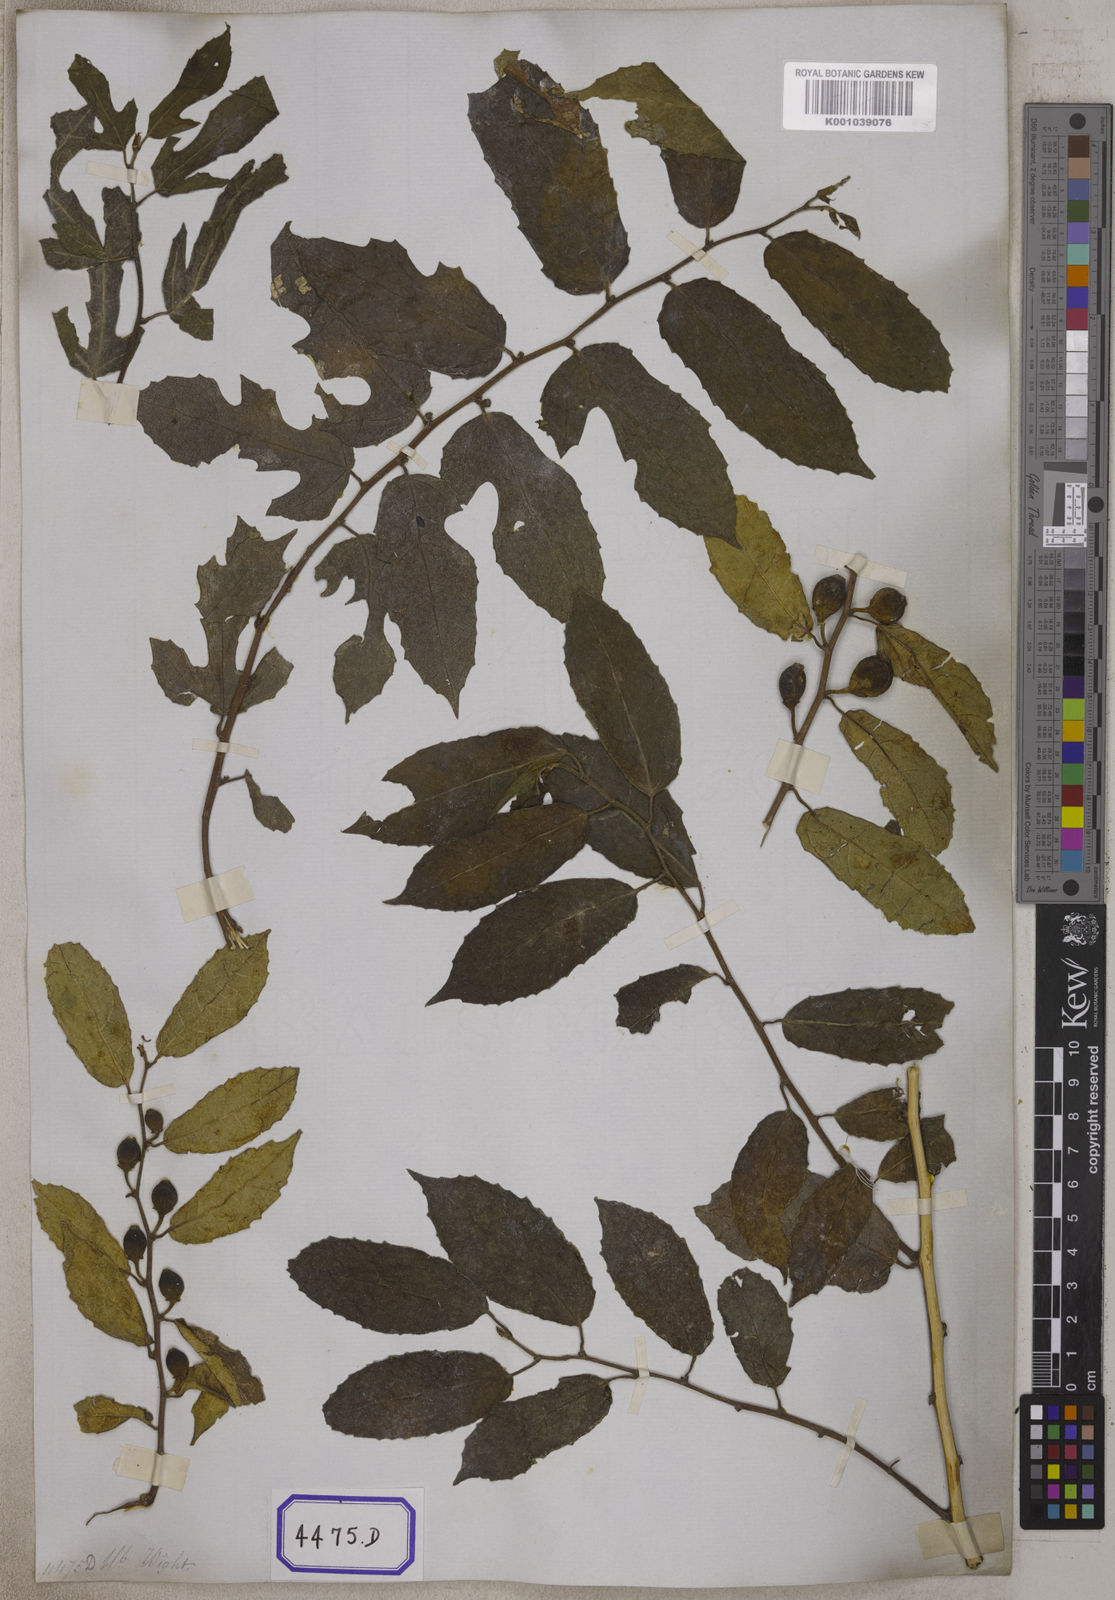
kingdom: Plantae
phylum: Tracheophyta
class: Magnoliopsida
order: Rosales
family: Moraceae
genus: Ficus
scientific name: Ficus
